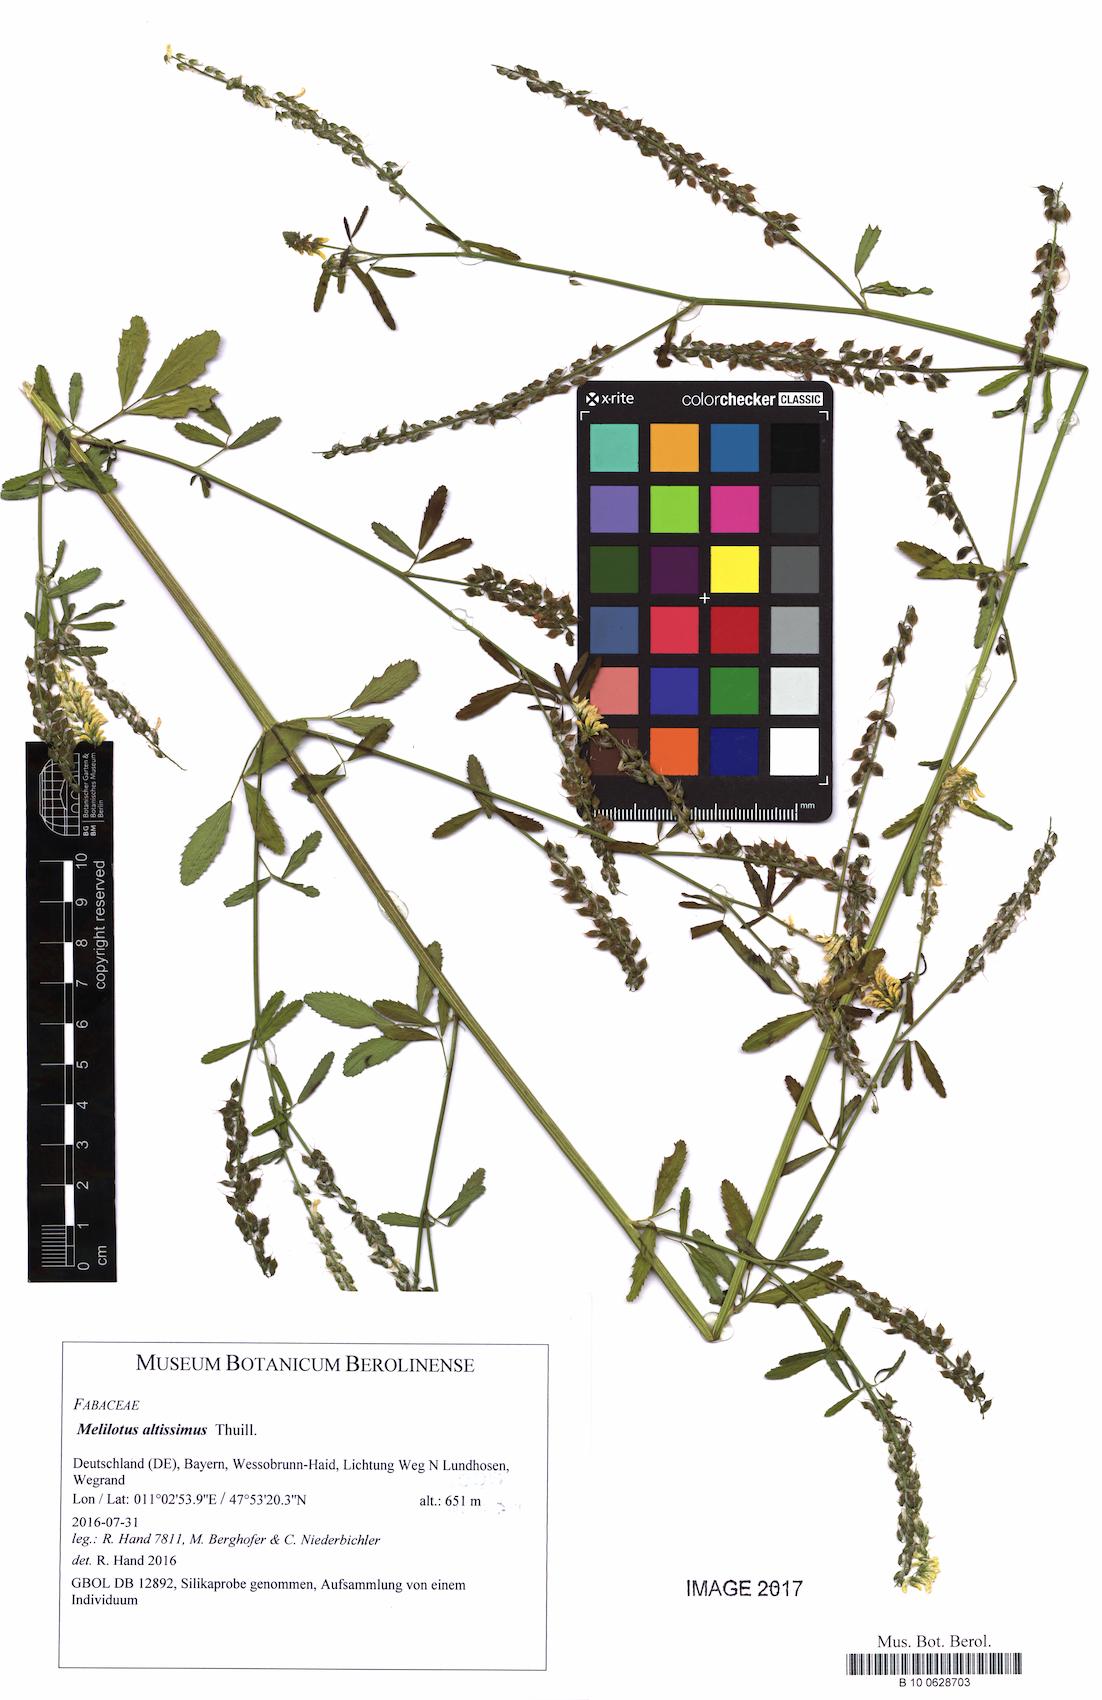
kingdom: Plantae
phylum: Tracheophyta
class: Magnoliopsida
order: Fabales
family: Fabaceae
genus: Melilotus
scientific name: Melilotus altissimus
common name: Tall melilot
